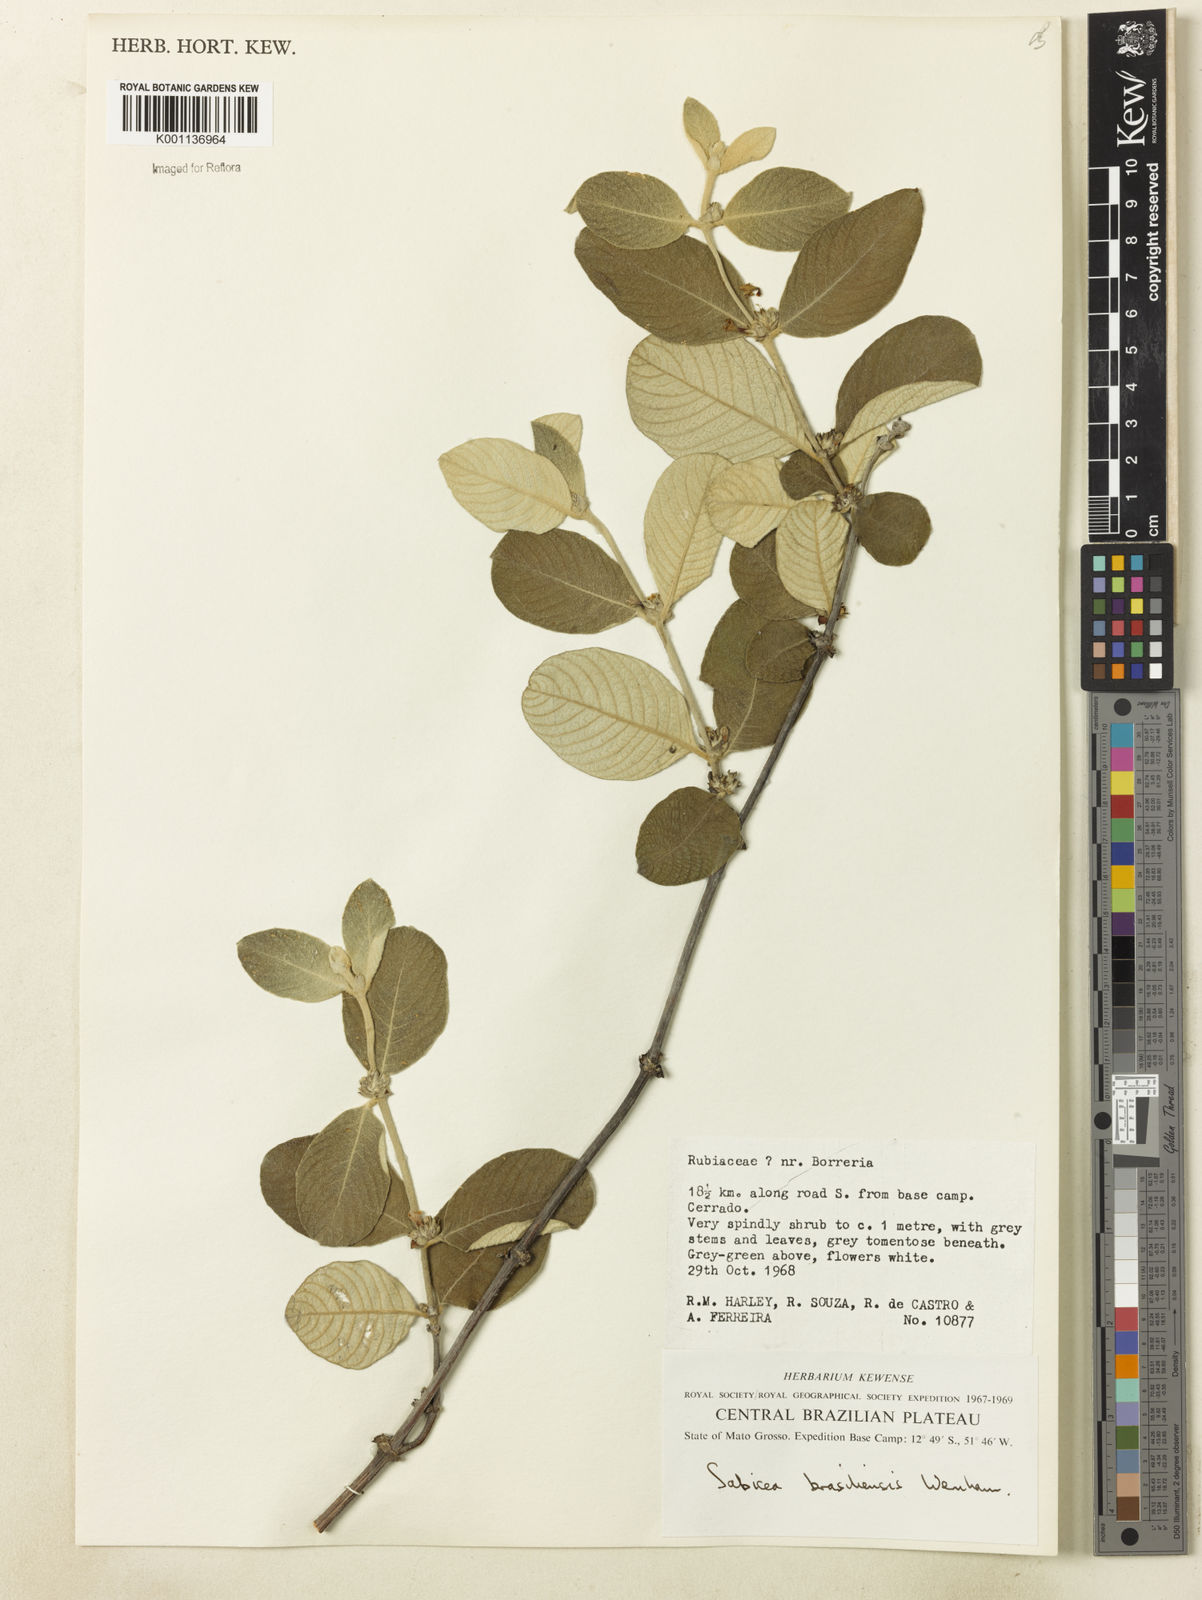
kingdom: Plantae
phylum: Tracheophyta
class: Magnoliopsida
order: Gentianales
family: Rubiaceae
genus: Sabicea
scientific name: Sabicea brasiliensis
